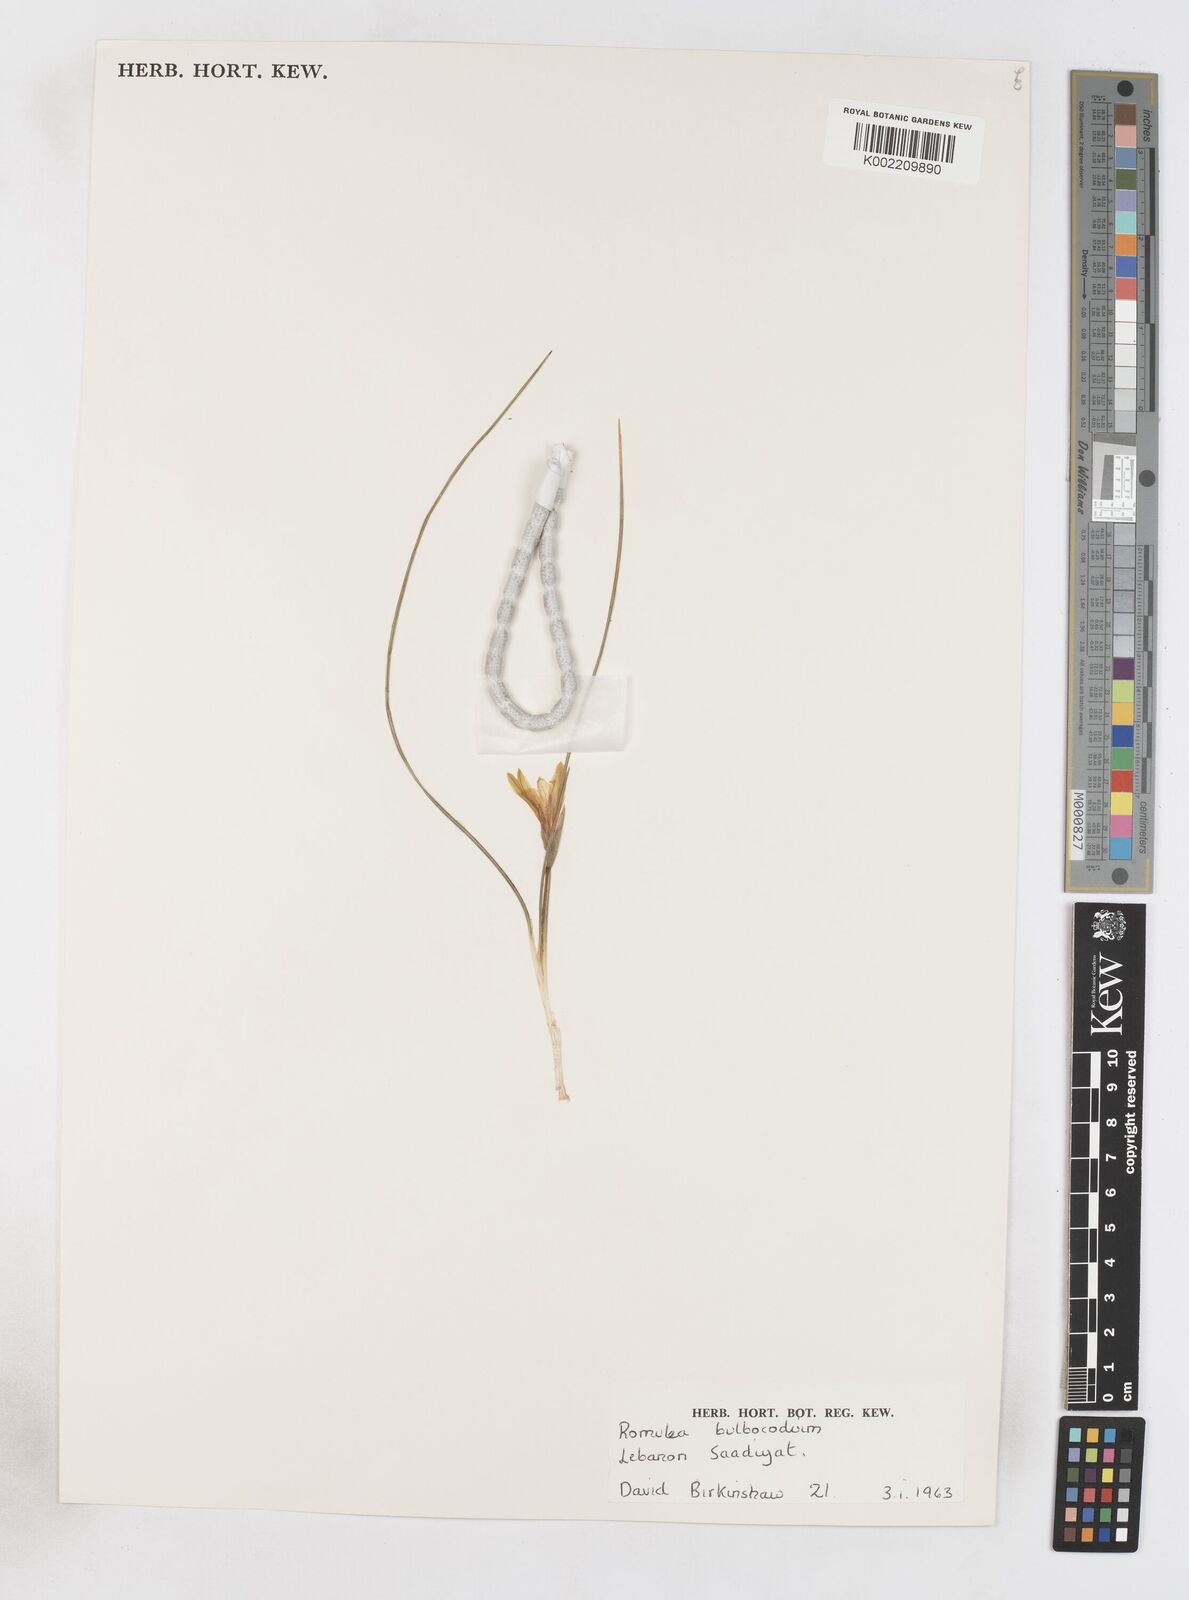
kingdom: Plantae
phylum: Tracheophyta
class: Liliopsida
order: Asparagales
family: Iridaceae
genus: Romulea
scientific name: Romulea bulbocodium
